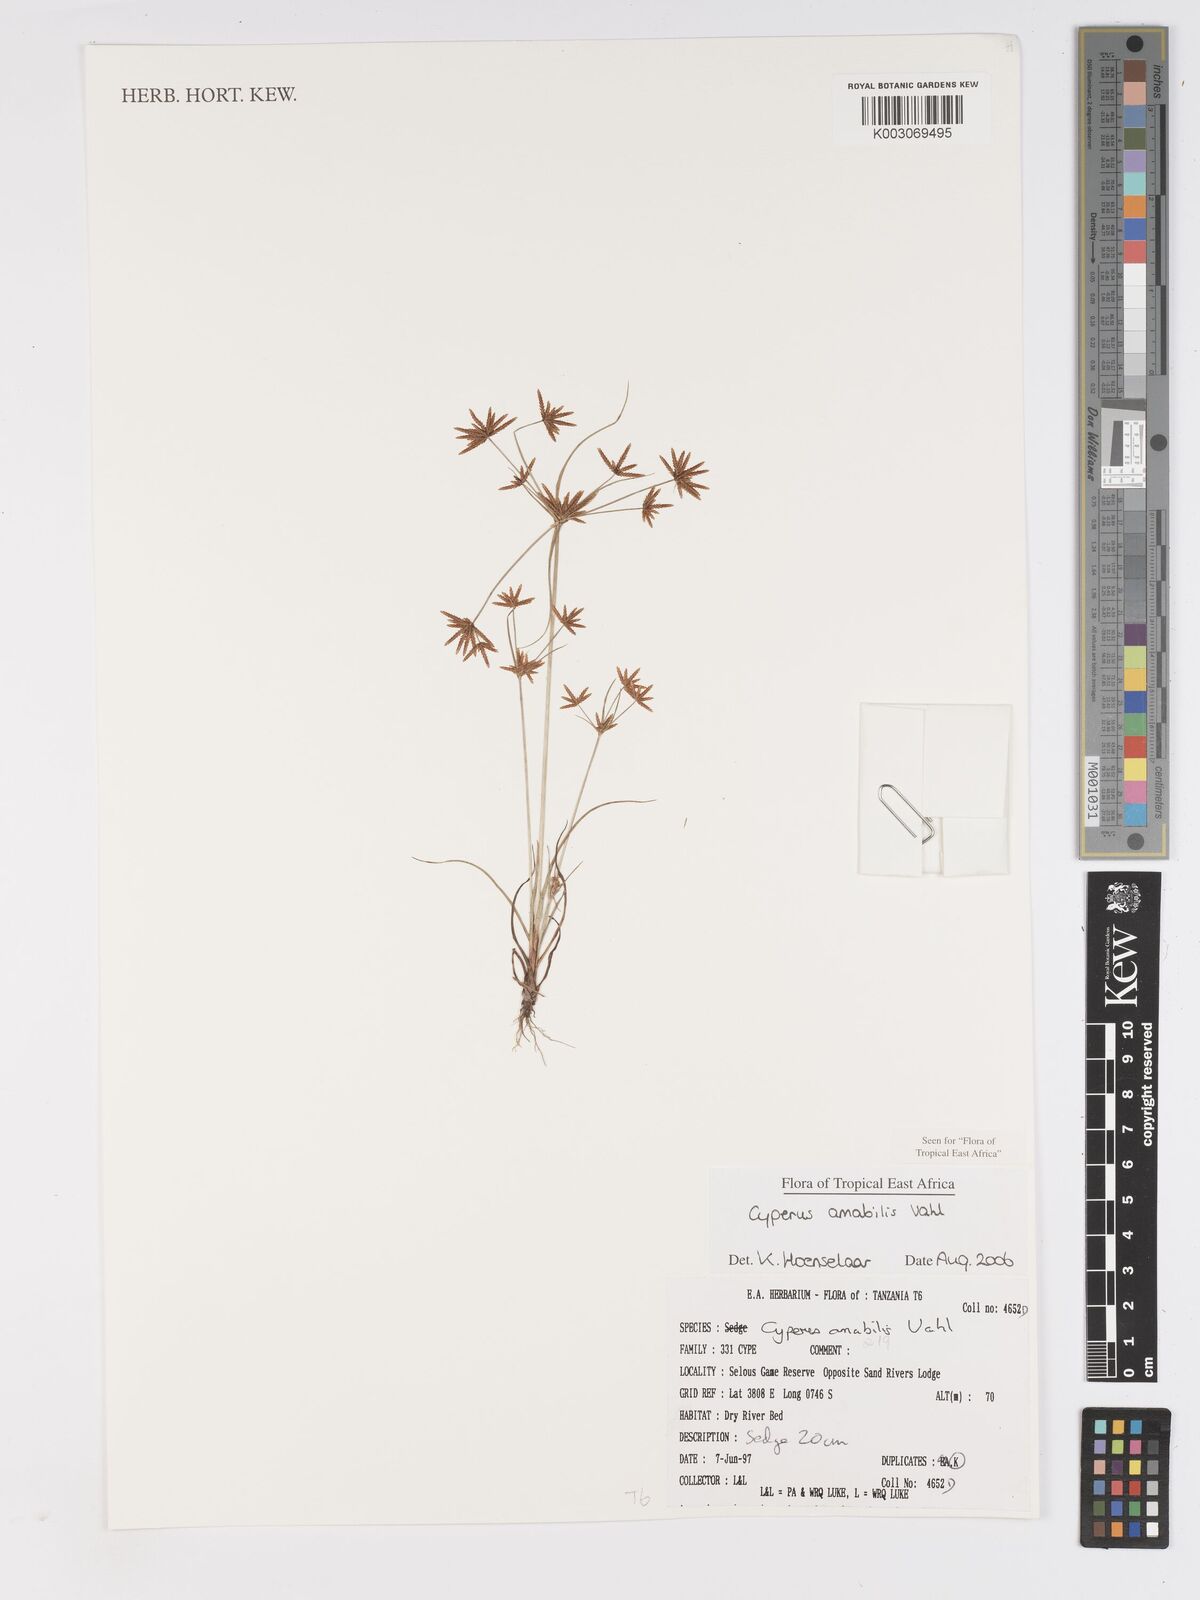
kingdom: Plantae
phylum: Tracheophyta
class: Liliopsida
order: Poales
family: Cyperaceae
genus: Cyperus
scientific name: Cyperus amabilis
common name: Foothill flat sedge
